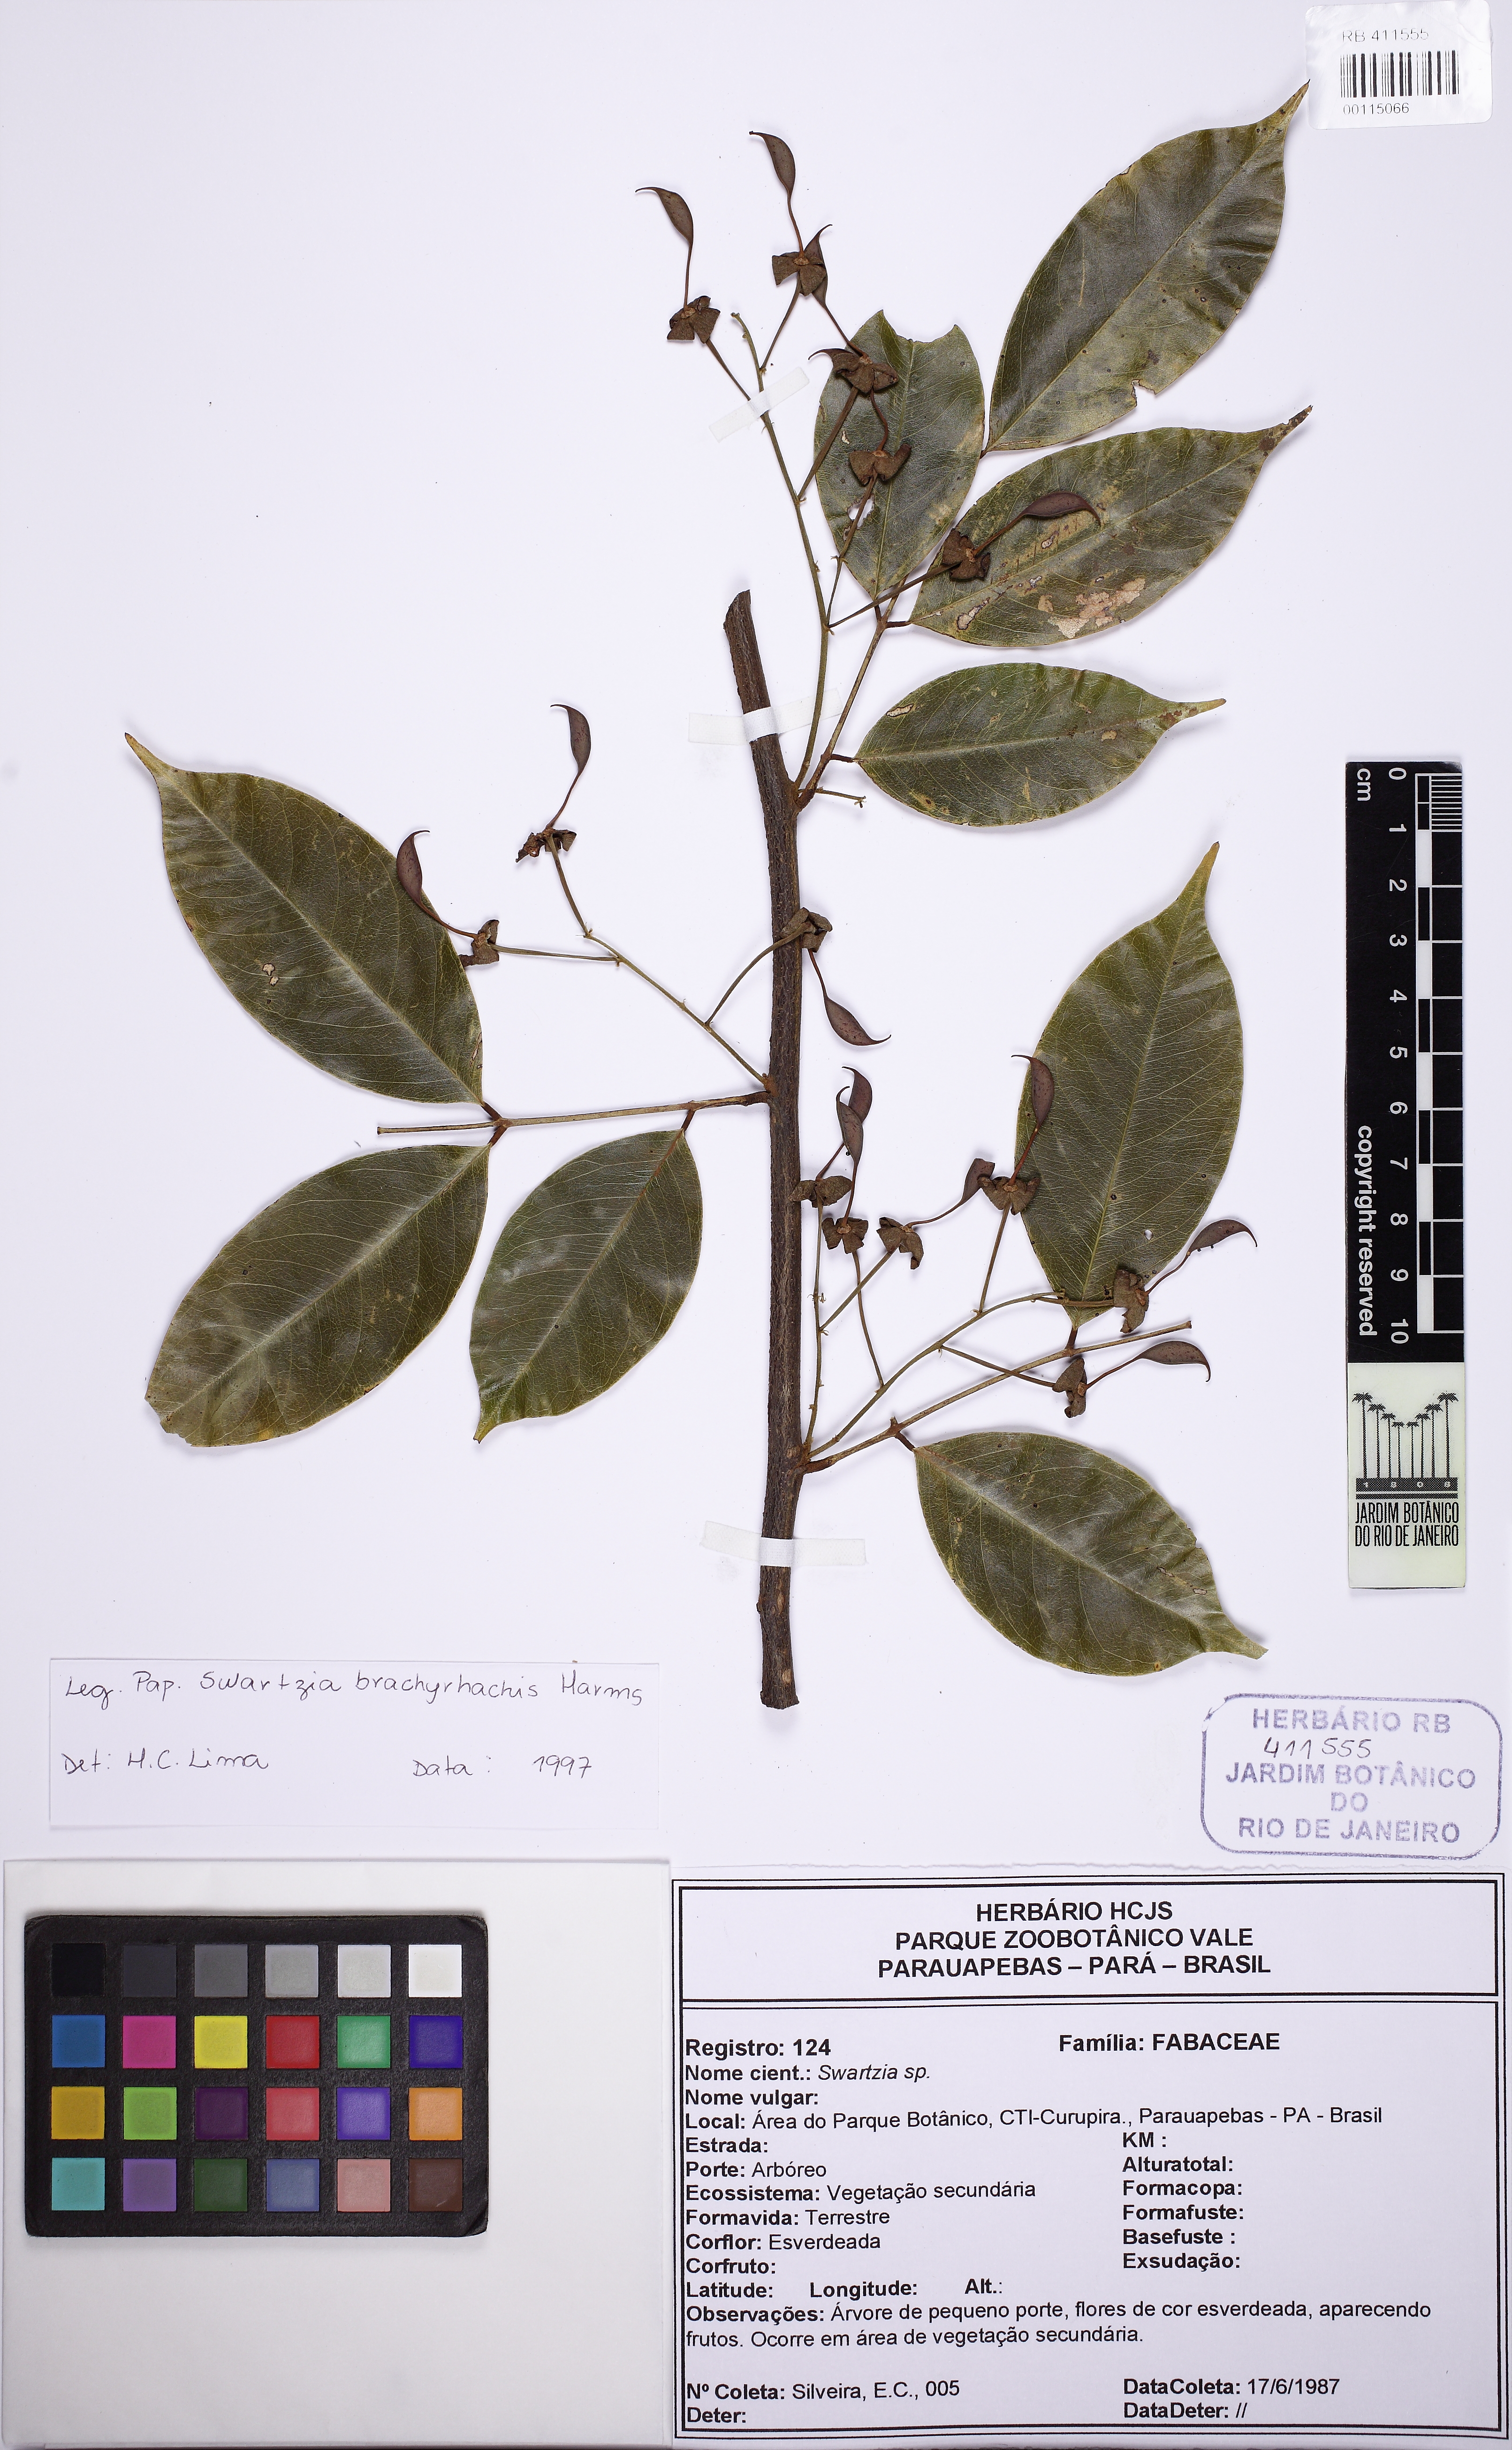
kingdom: Plantae
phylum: Tracheophyta
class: Magnoliopsida
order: Fabales
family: Fabaceae
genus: Swartzia
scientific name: Swartzia brachyrhachis
